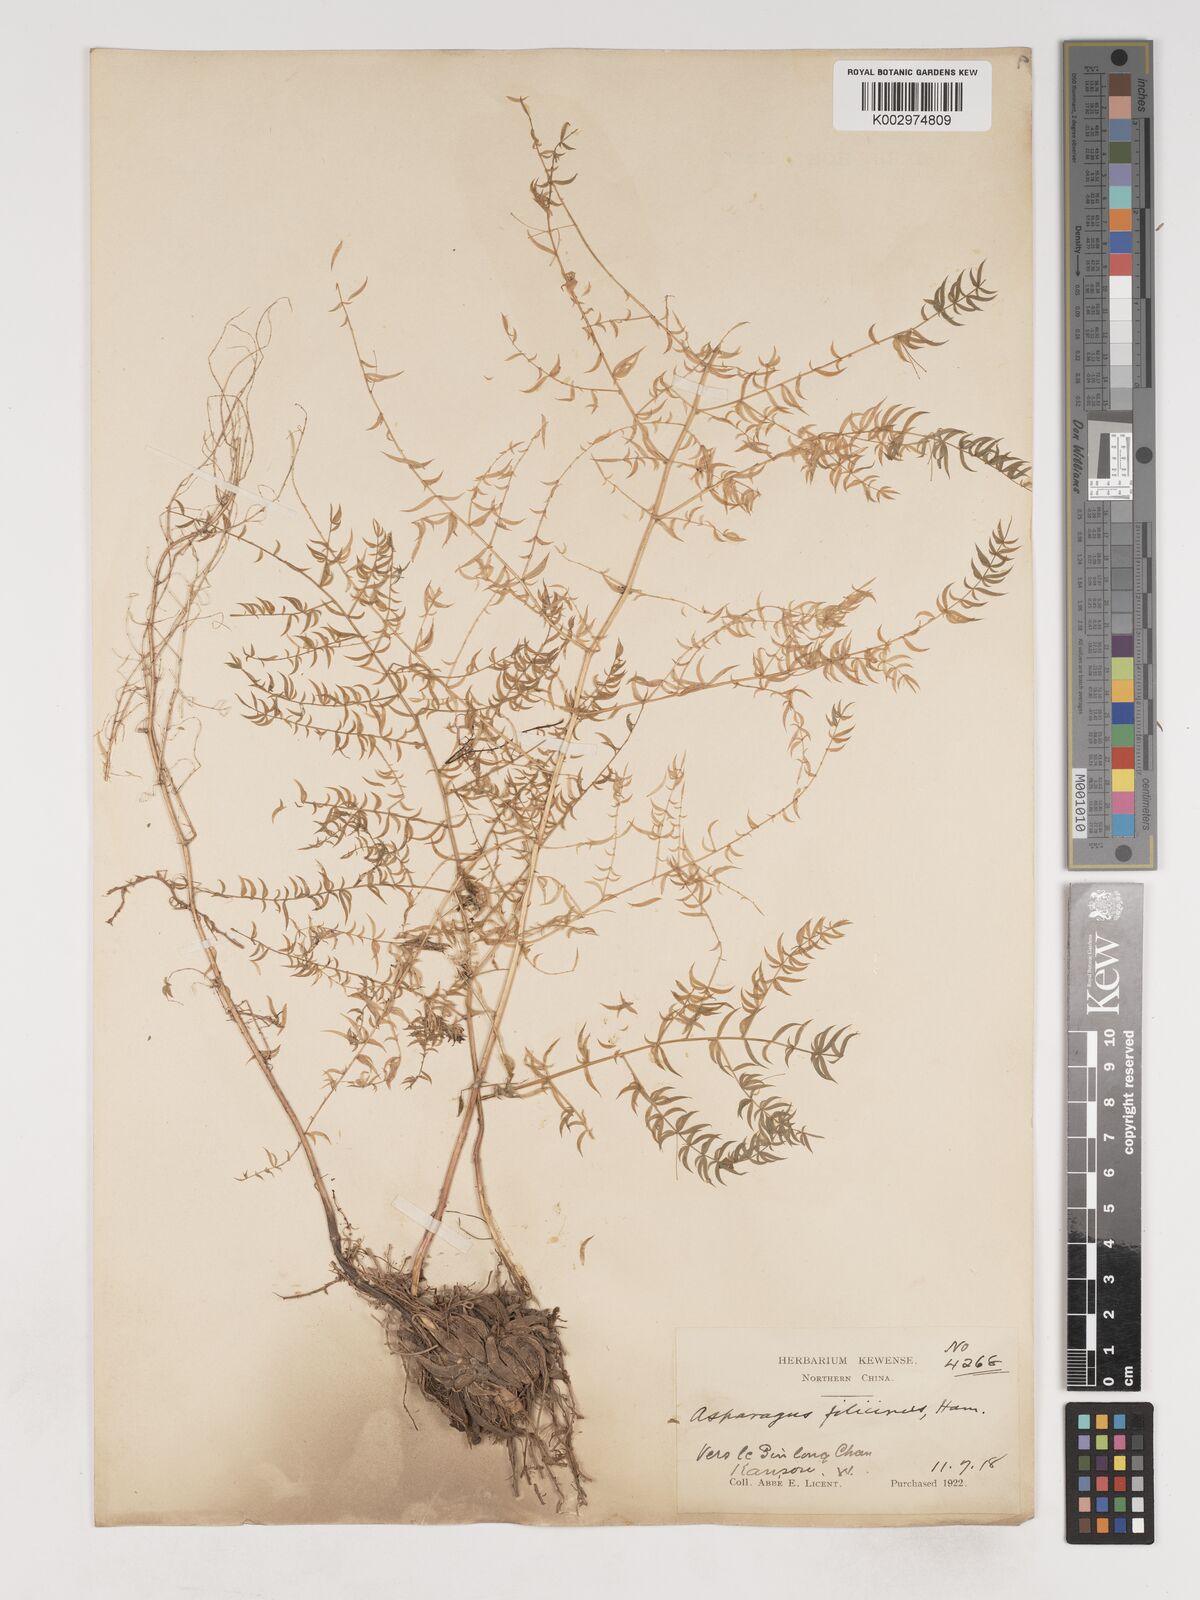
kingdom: Plantae
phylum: Tracheophyta
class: Liliopsida
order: Asparagales
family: Asparagaceae
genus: Asparagus
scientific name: Asparagus filicinus
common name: Fern asparagus
